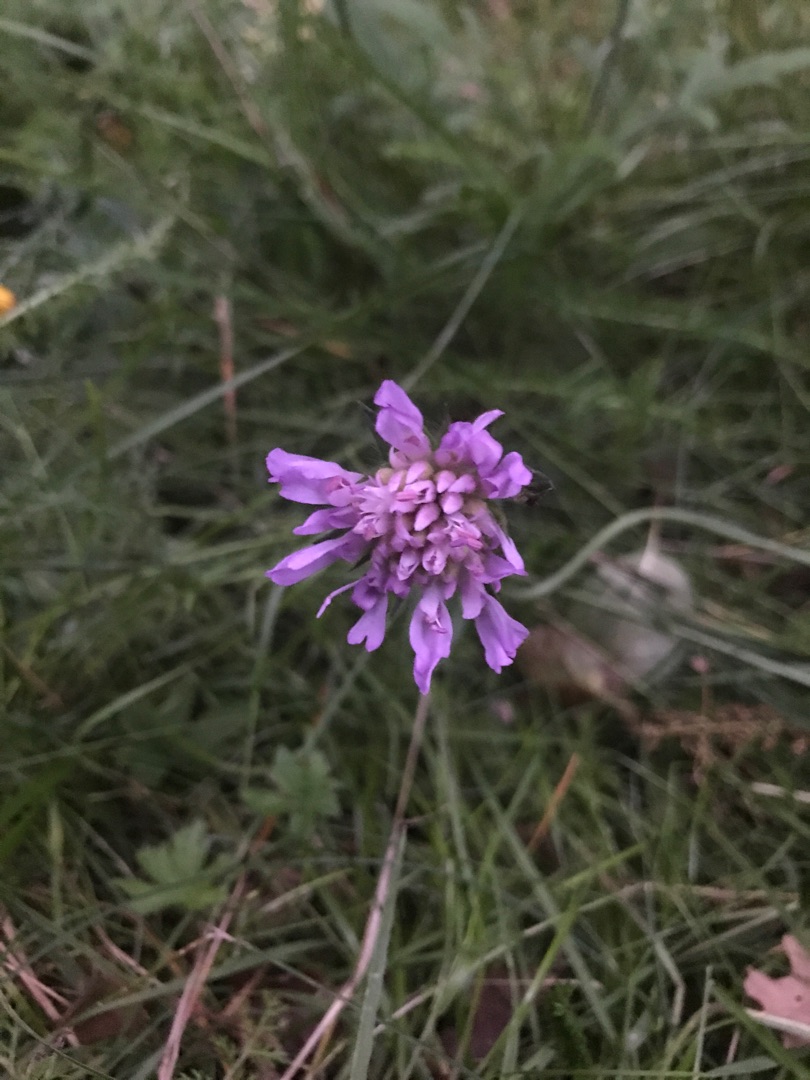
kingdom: Plantae
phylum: Tracheophyta
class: Magnoliopsida
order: Dipsacales
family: Caprifoliaceae
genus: Knautia
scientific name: Knautia arvensis
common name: Blåhat
